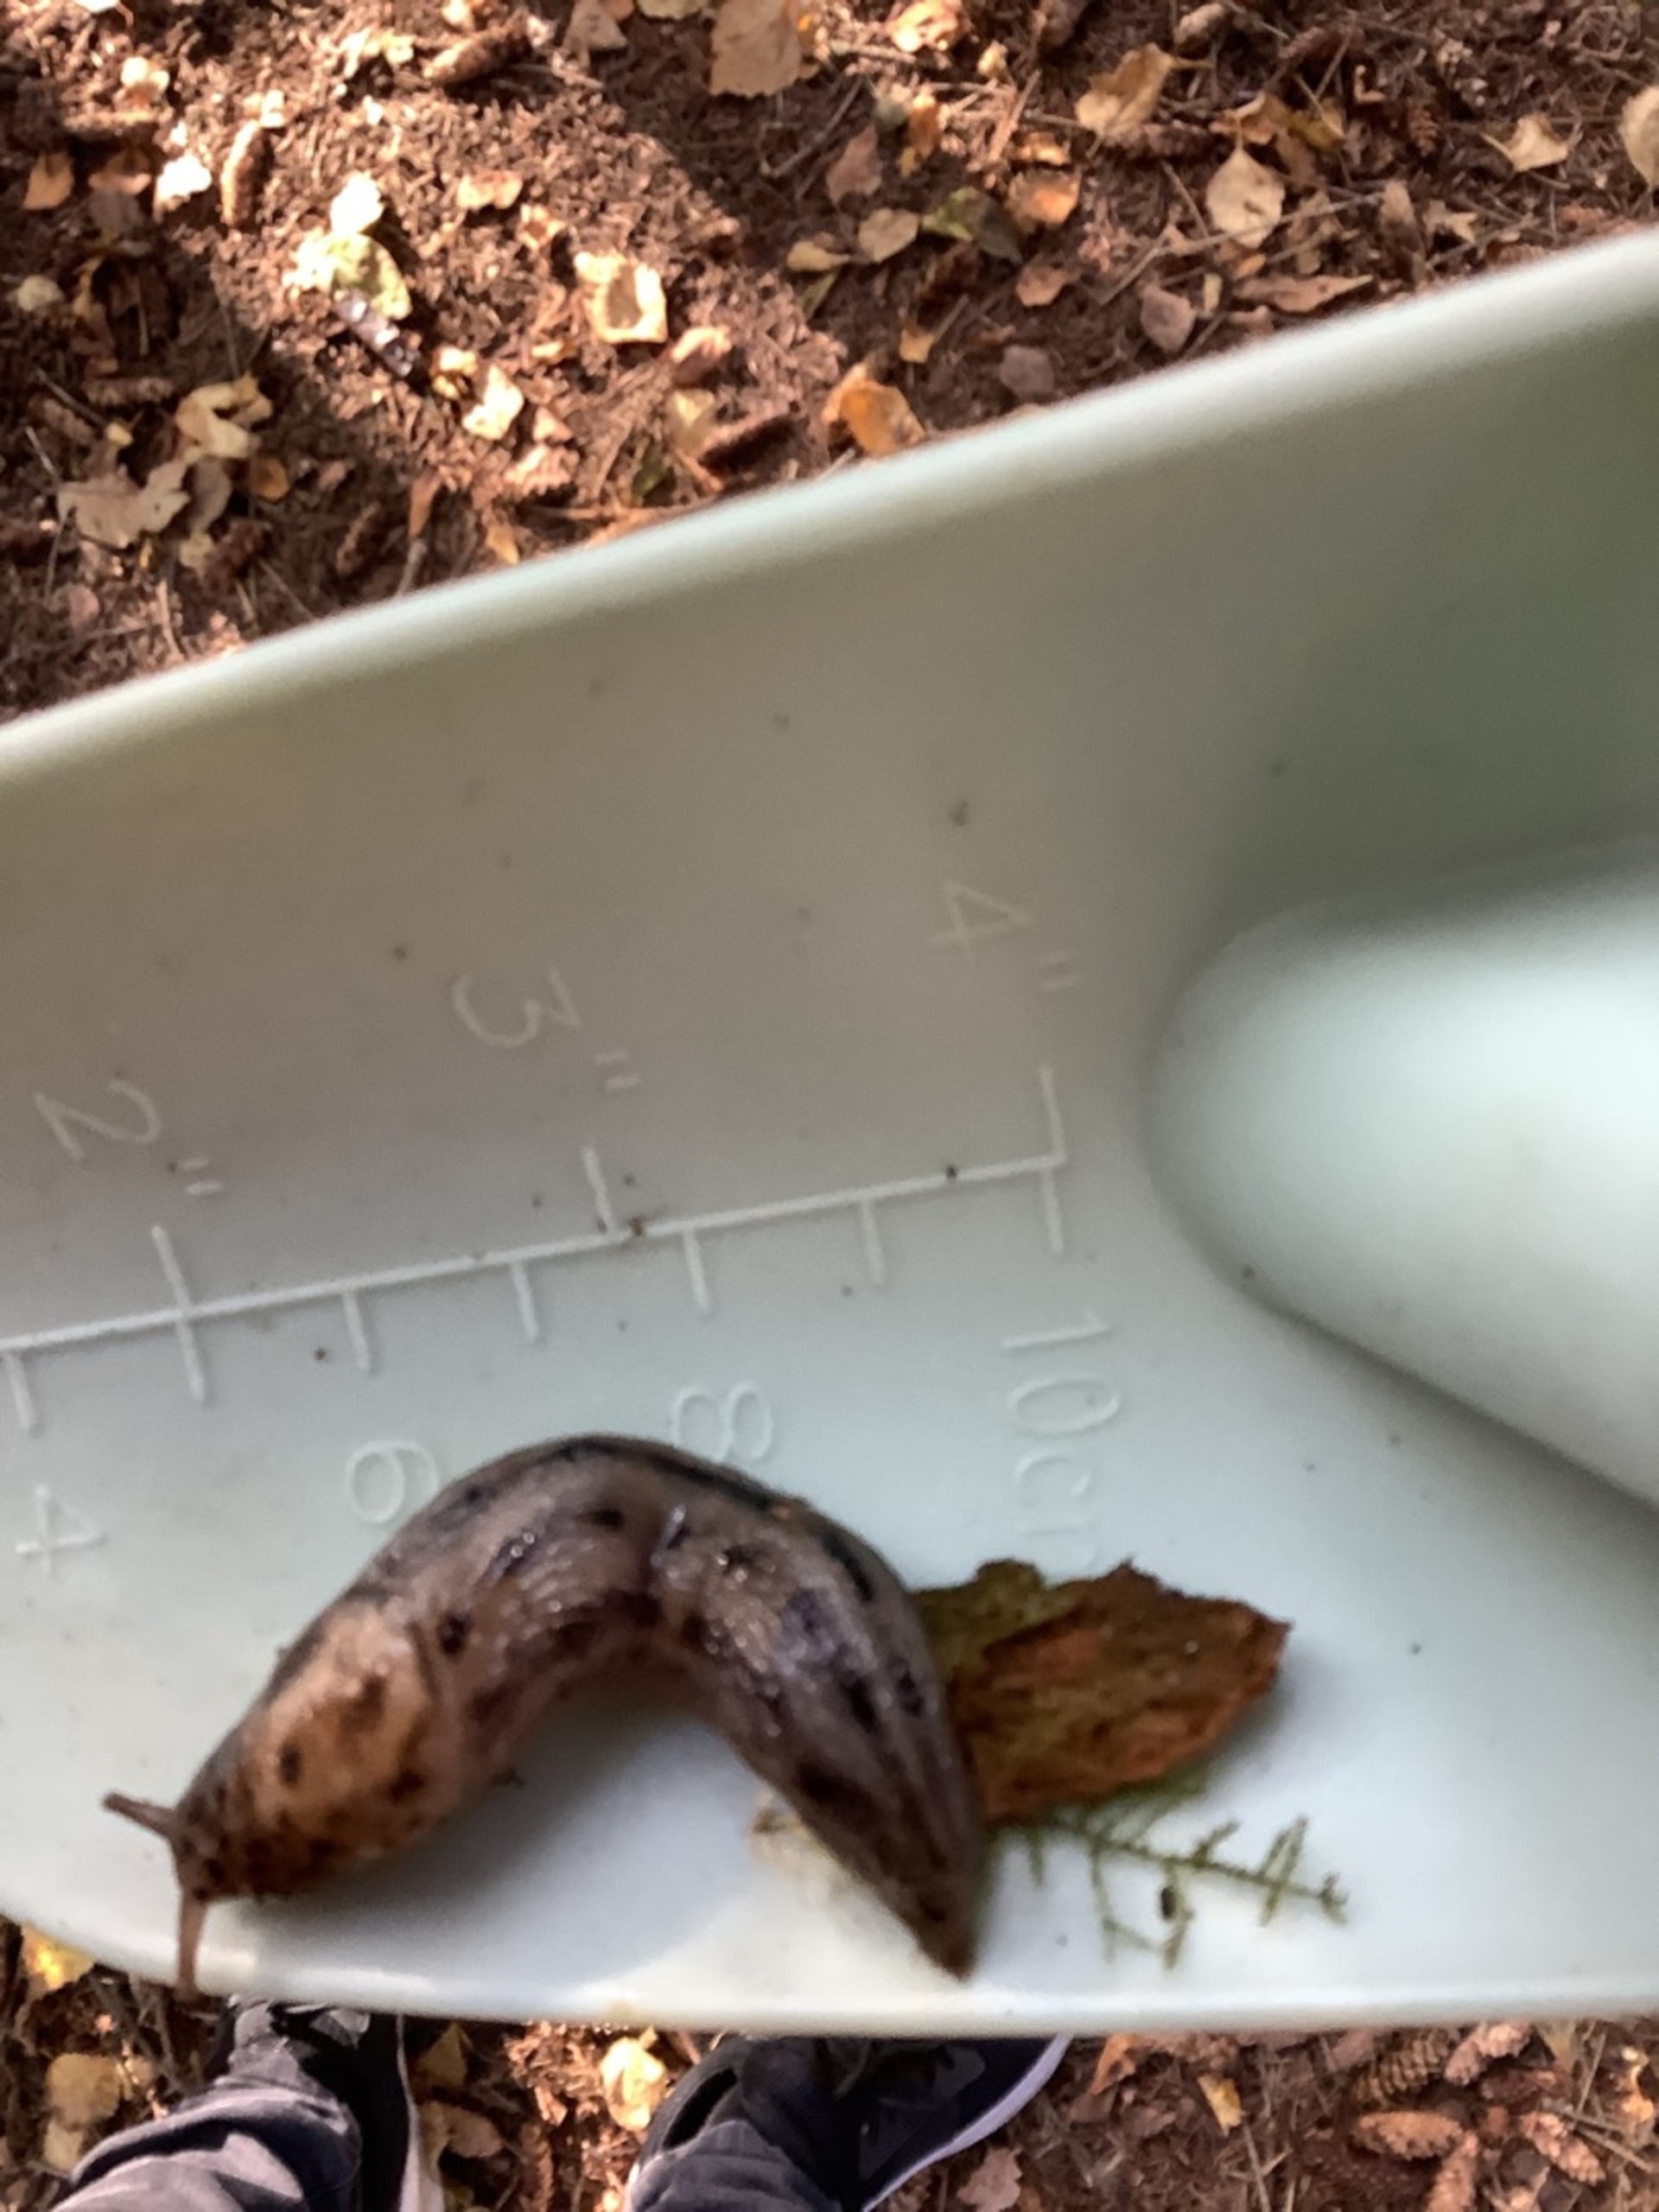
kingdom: Animalia
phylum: Mollusca
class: Gastropoda
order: Stylommatophora
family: Limacidae
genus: Limax
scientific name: Limax maximus
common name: Pantersnegl
